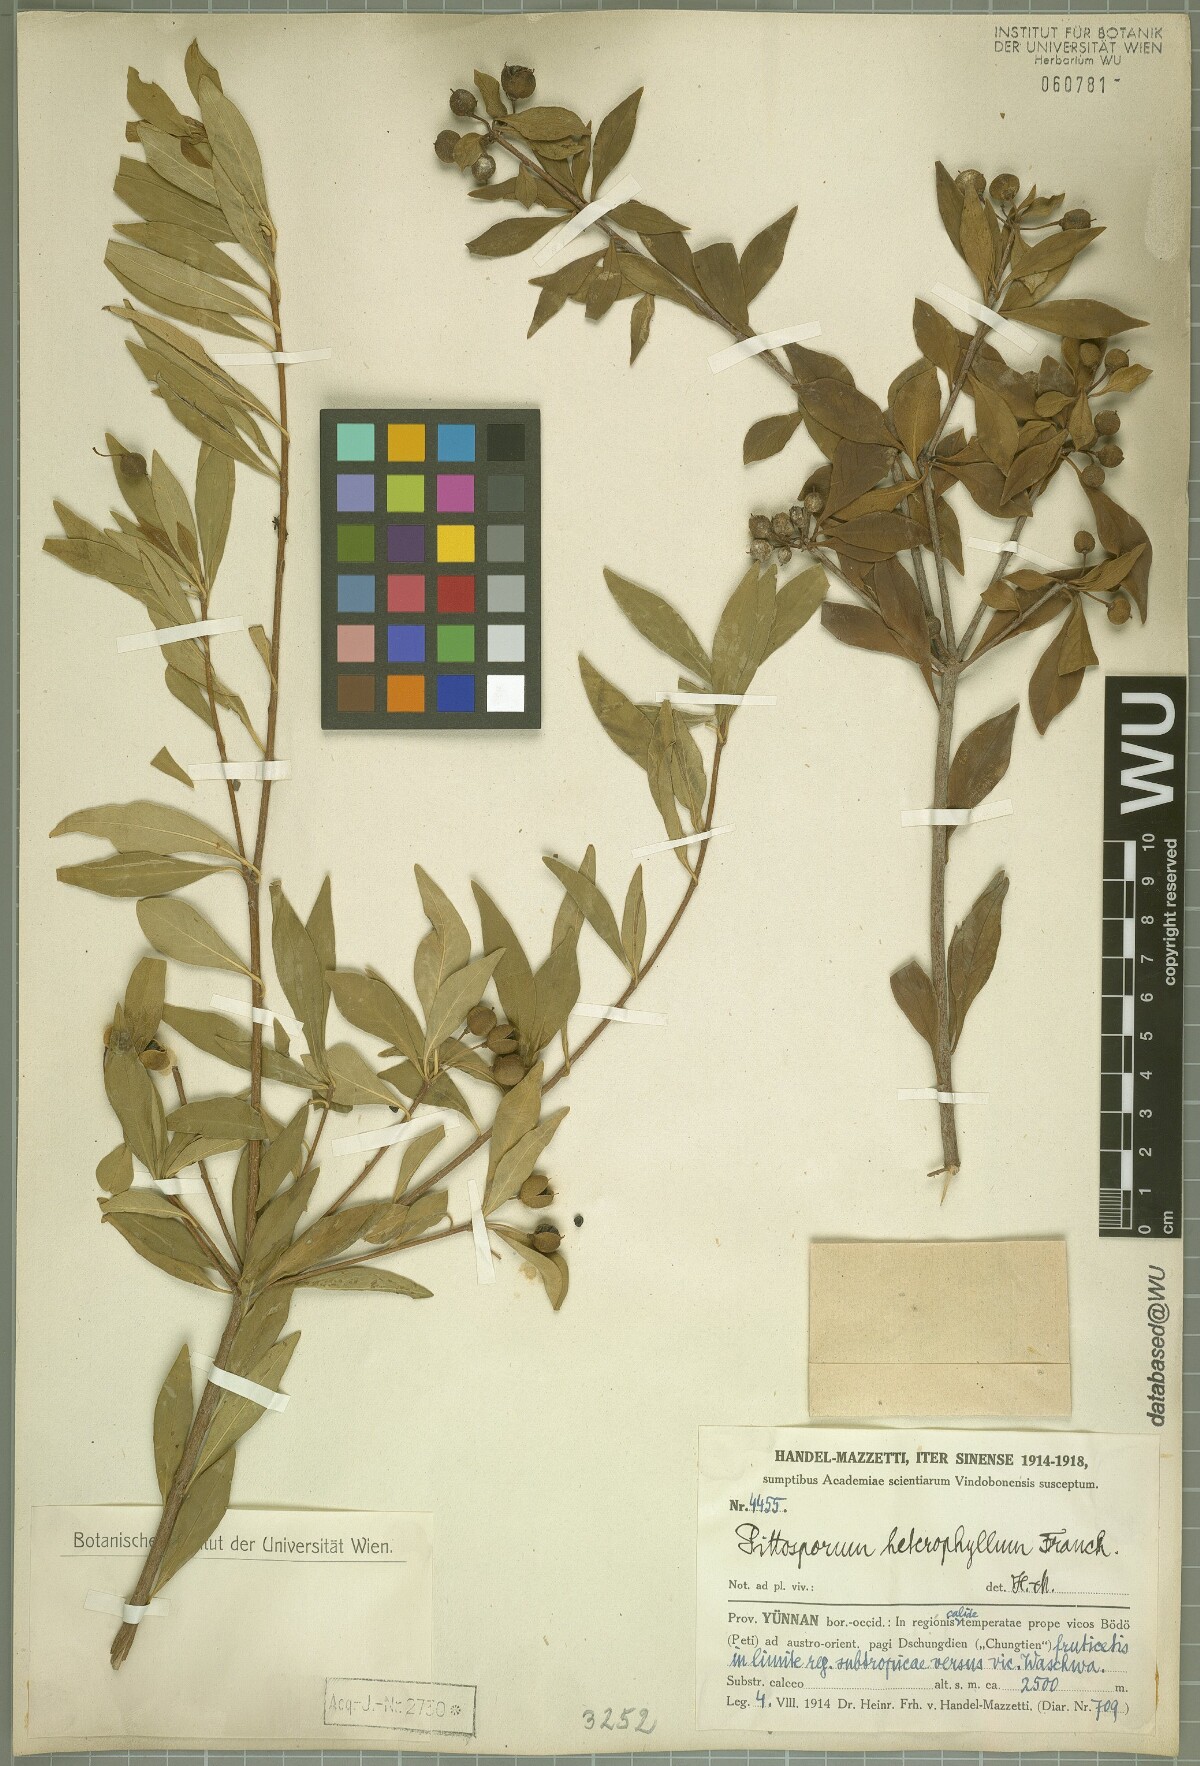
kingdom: Plantae
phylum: Tracheophyta
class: Magnoliopsida
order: Apiales
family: Pittosporaceae
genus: Pittosporum
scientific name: Pittosporum heterophyllum
